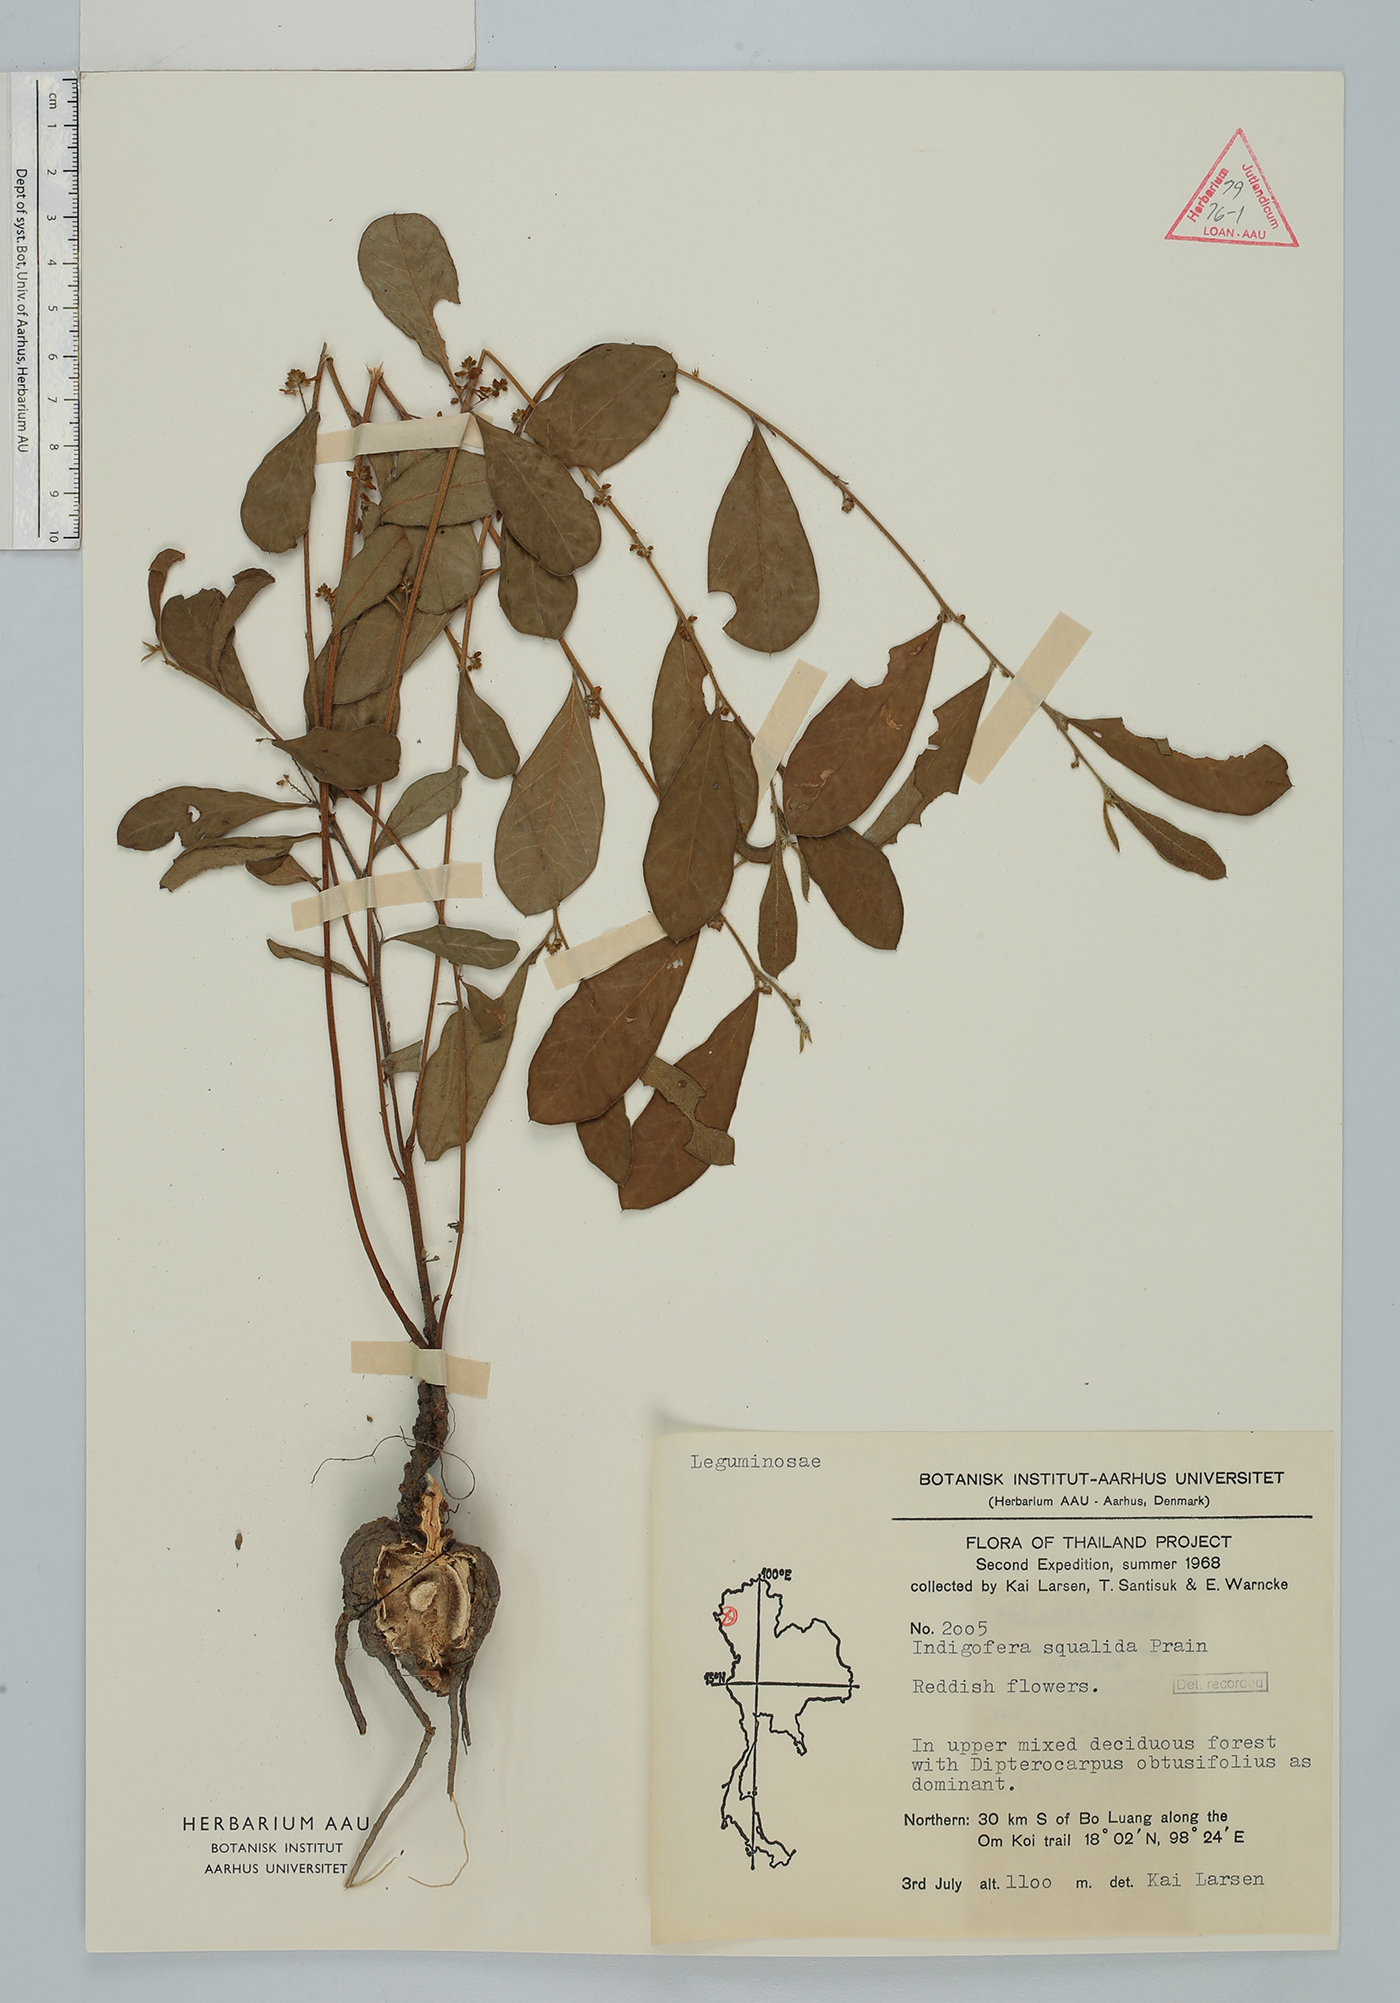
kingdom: Plantae
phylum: Tracheophyta
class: Magnoliopsida
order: Fabales
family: Fabaceae
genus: Indigofera
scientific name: Indigofera squalida
